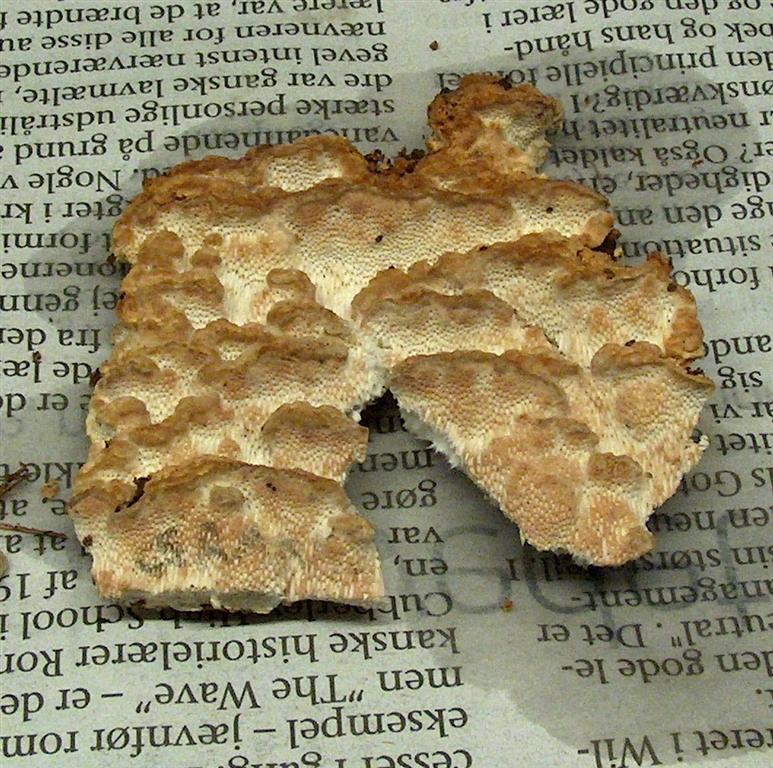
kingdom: Fungi
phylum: Basidiomycota
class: Agaricomycetes
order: Polyporales
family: Fomitopsidaceae
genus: Neoantrodia
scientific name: Neoantrodia serialis
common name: række-sejporesvamp
